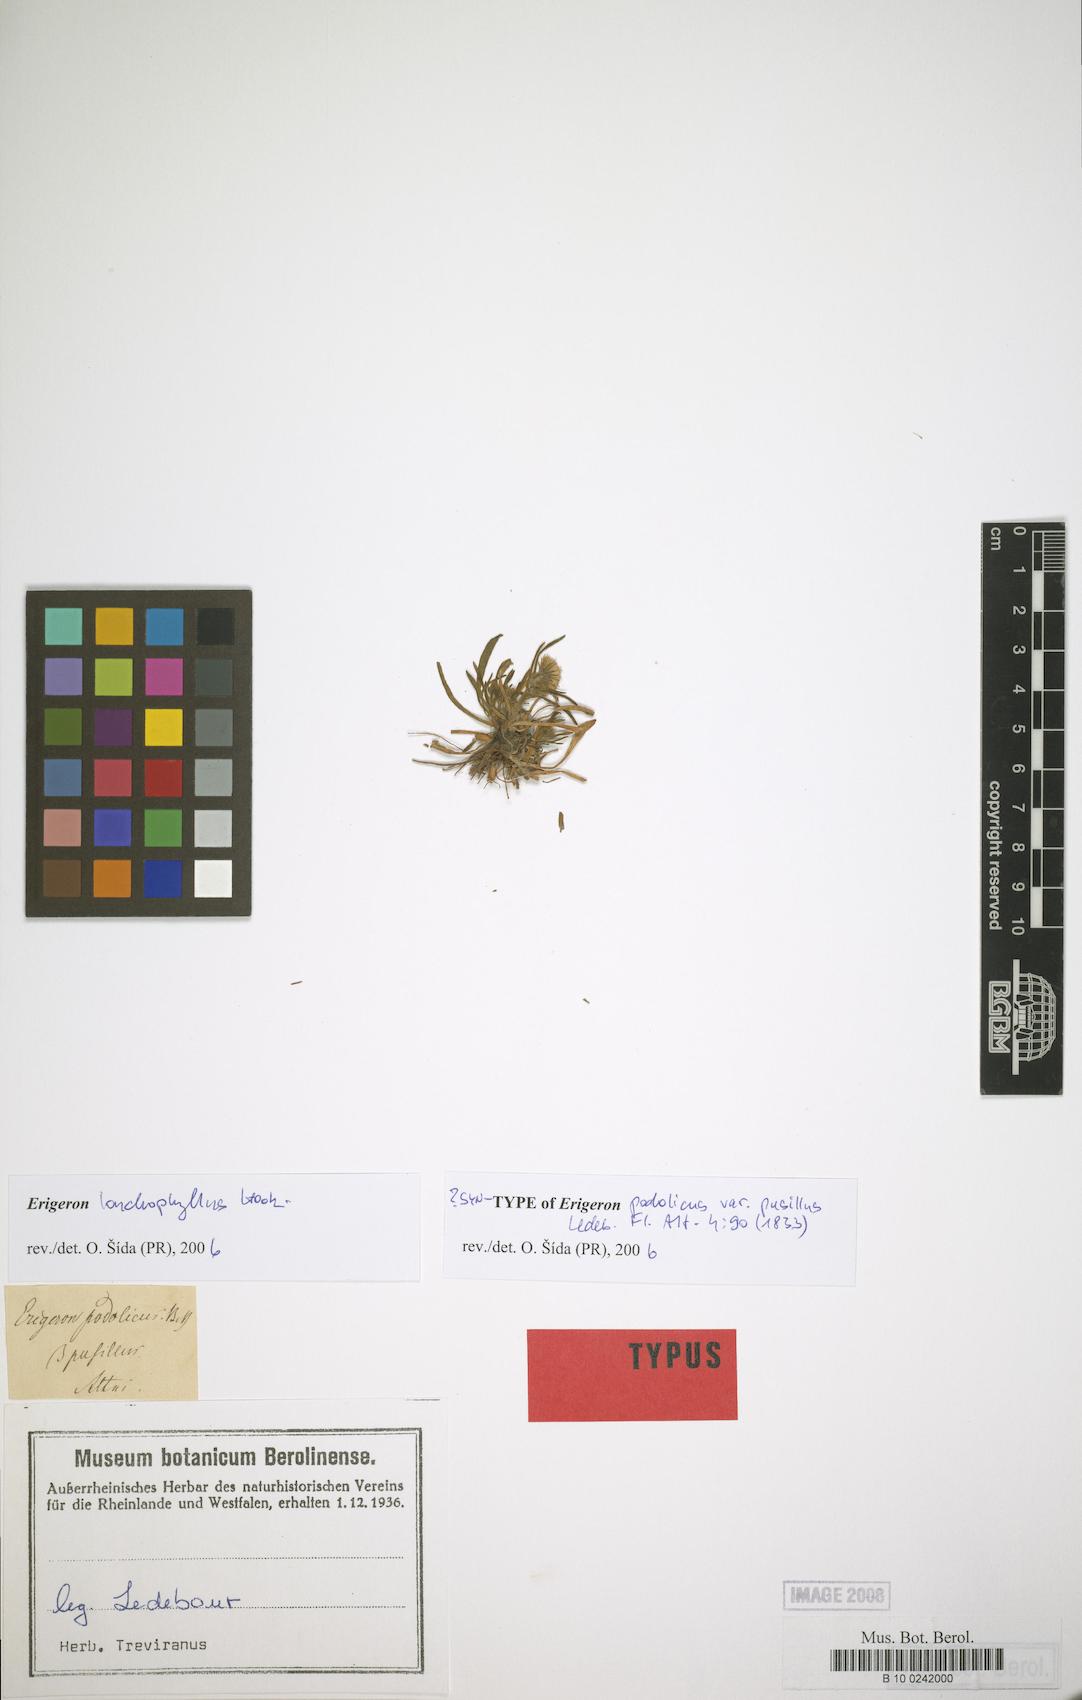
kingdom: Plantae
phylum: Tracheophyta
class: Magnoliopsida
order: Asterales
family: Asteraceae
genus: Erigeron
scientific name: Erigeron lonchophyllus
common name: Short-ray fleabane
